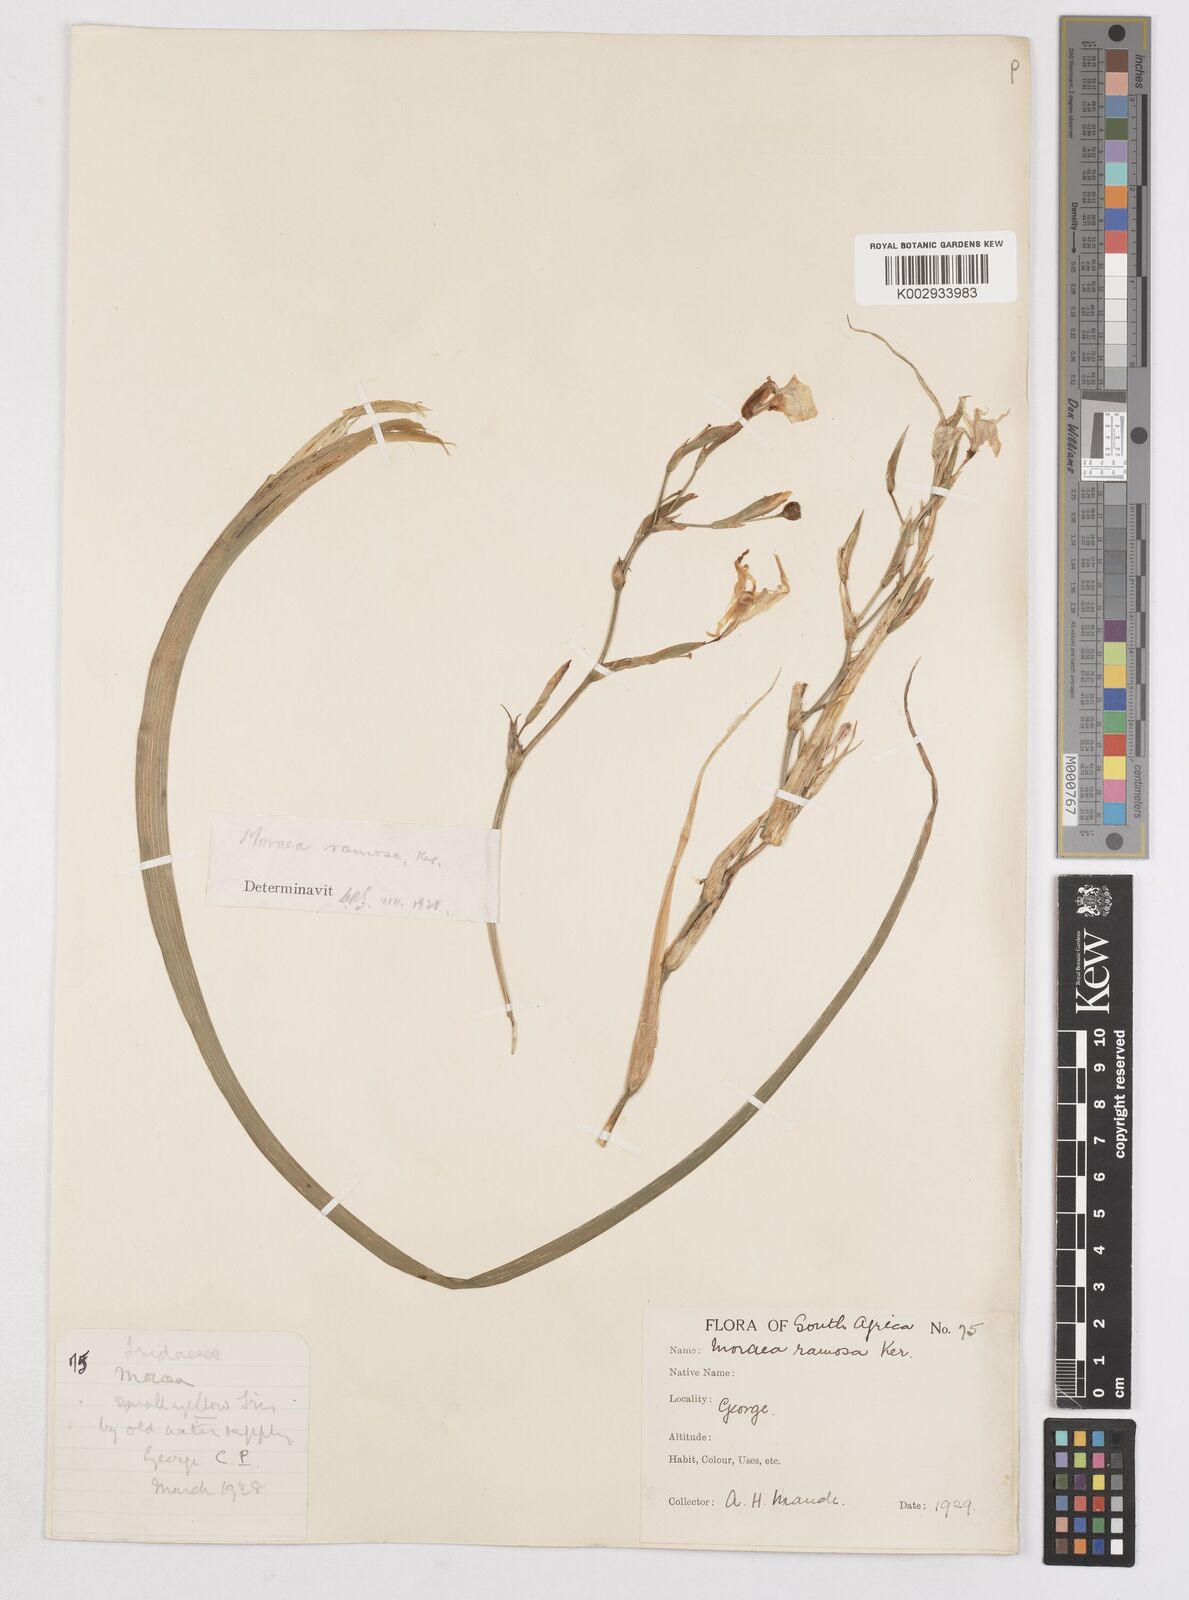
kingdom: Plantae
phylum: Tracheophyta
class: Liliopsida
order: Asparagales
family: Iridaceae
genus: Moraea
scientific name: Moraea ramosissima
